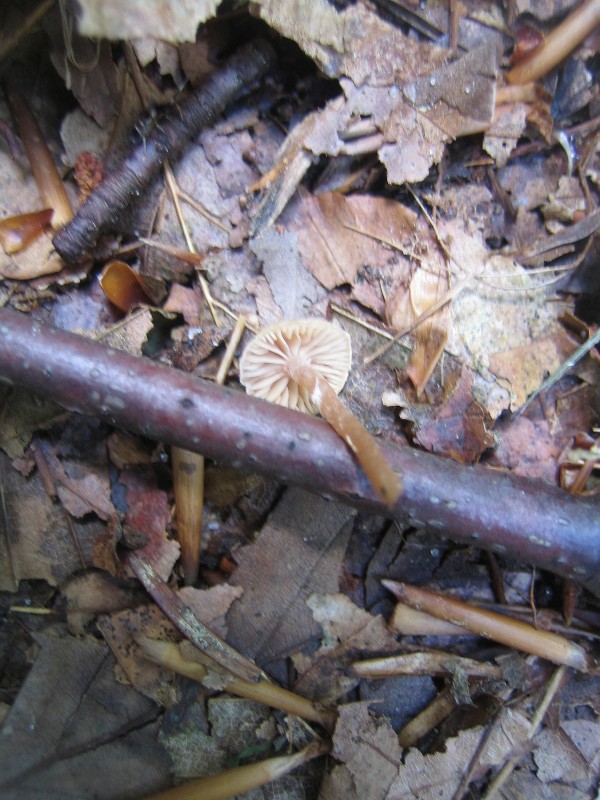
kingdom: Fungi
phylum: Basidiomycota
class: Agaricomycetes
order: Agaricales
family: Tubariaceae
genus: Tubaria
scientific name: Tubaria conspersa
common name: bleg fnughat
